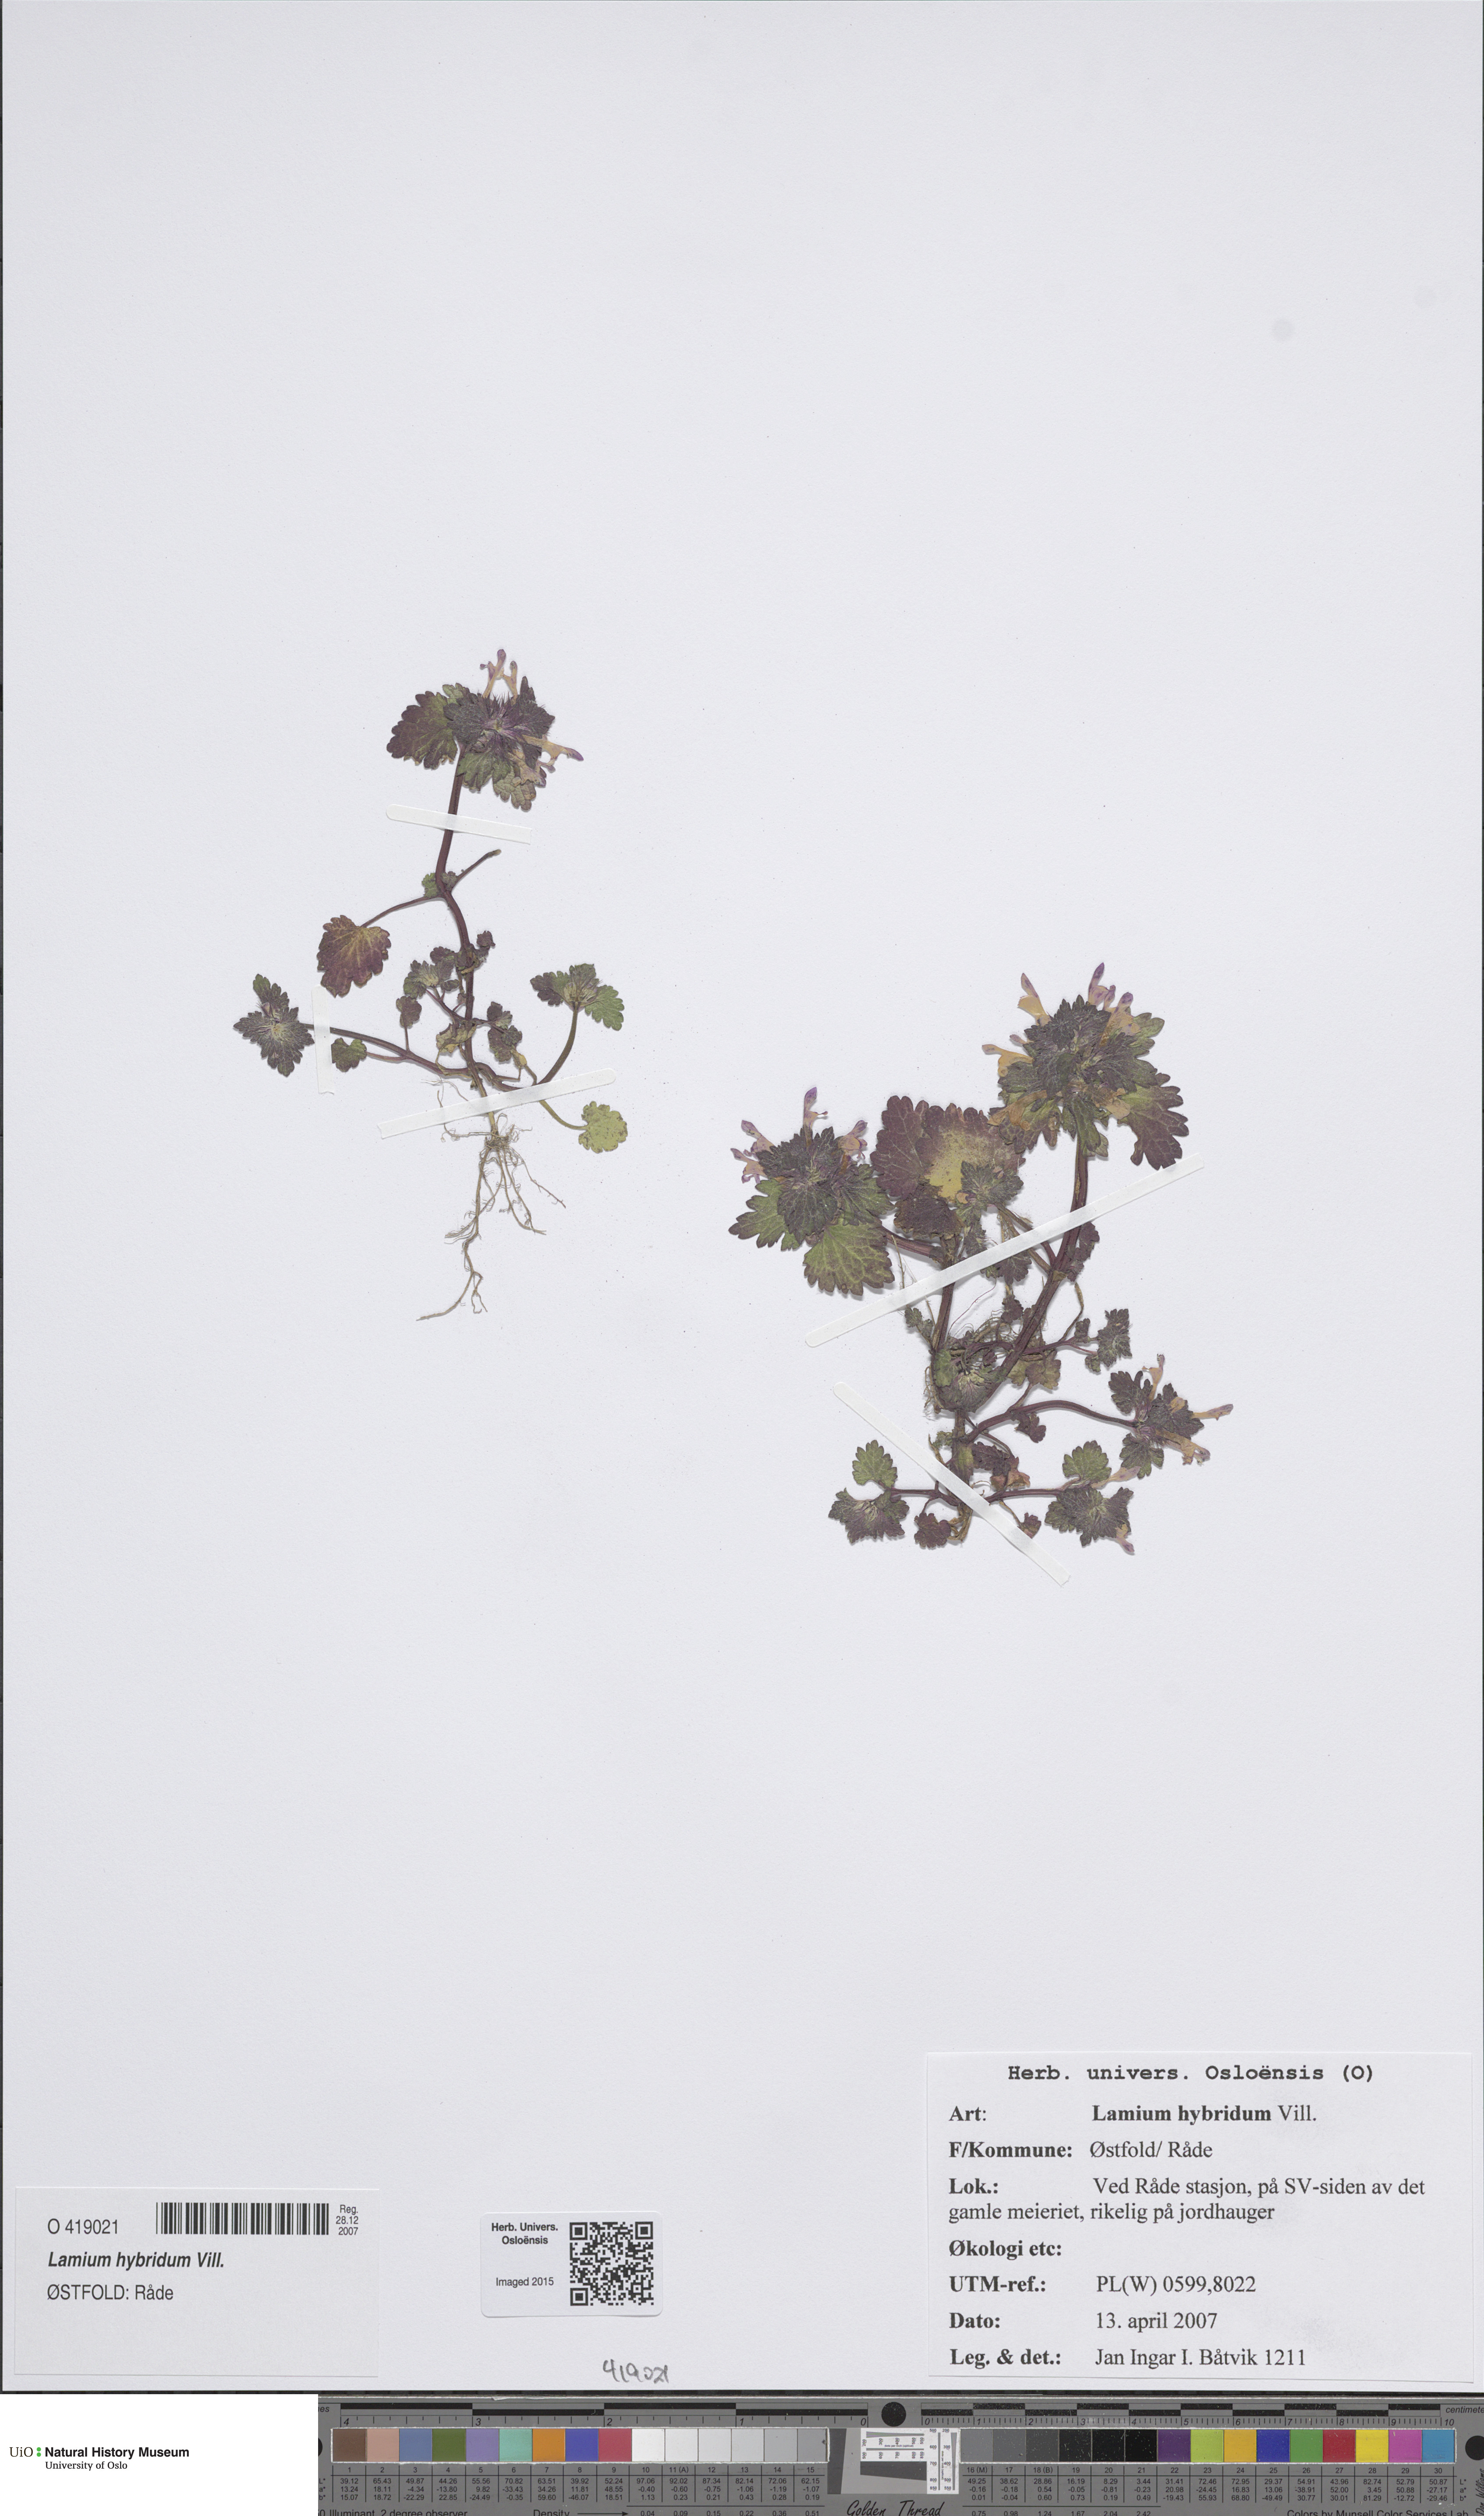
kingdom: Plantae
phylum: Tracheophyta
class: Magnoliopsida
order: Lamiales
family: Lamiaceae
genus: Lamium
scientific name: Lamium hybridum
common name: Cut-leaved dead-nettle
